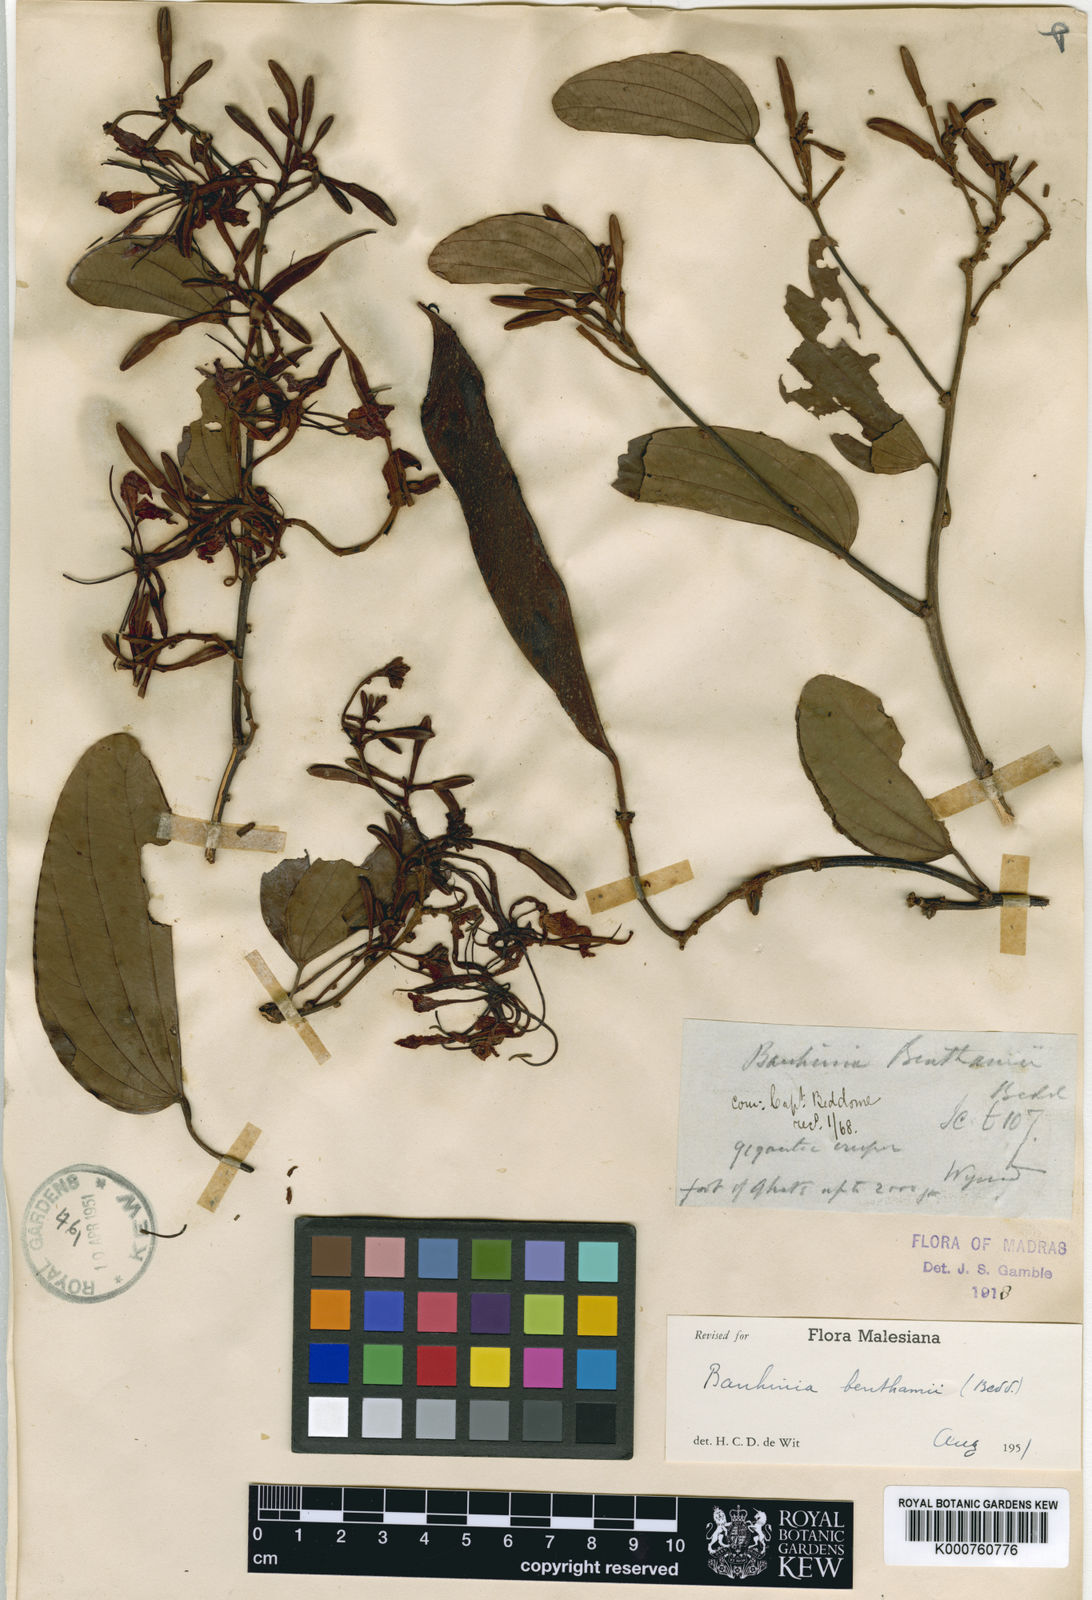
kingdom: Plantae
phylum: Tracheophyta
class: Magnoliopsida
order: Fabales
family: Fabaceae
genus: Bauhinia
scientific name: Bauhinia
